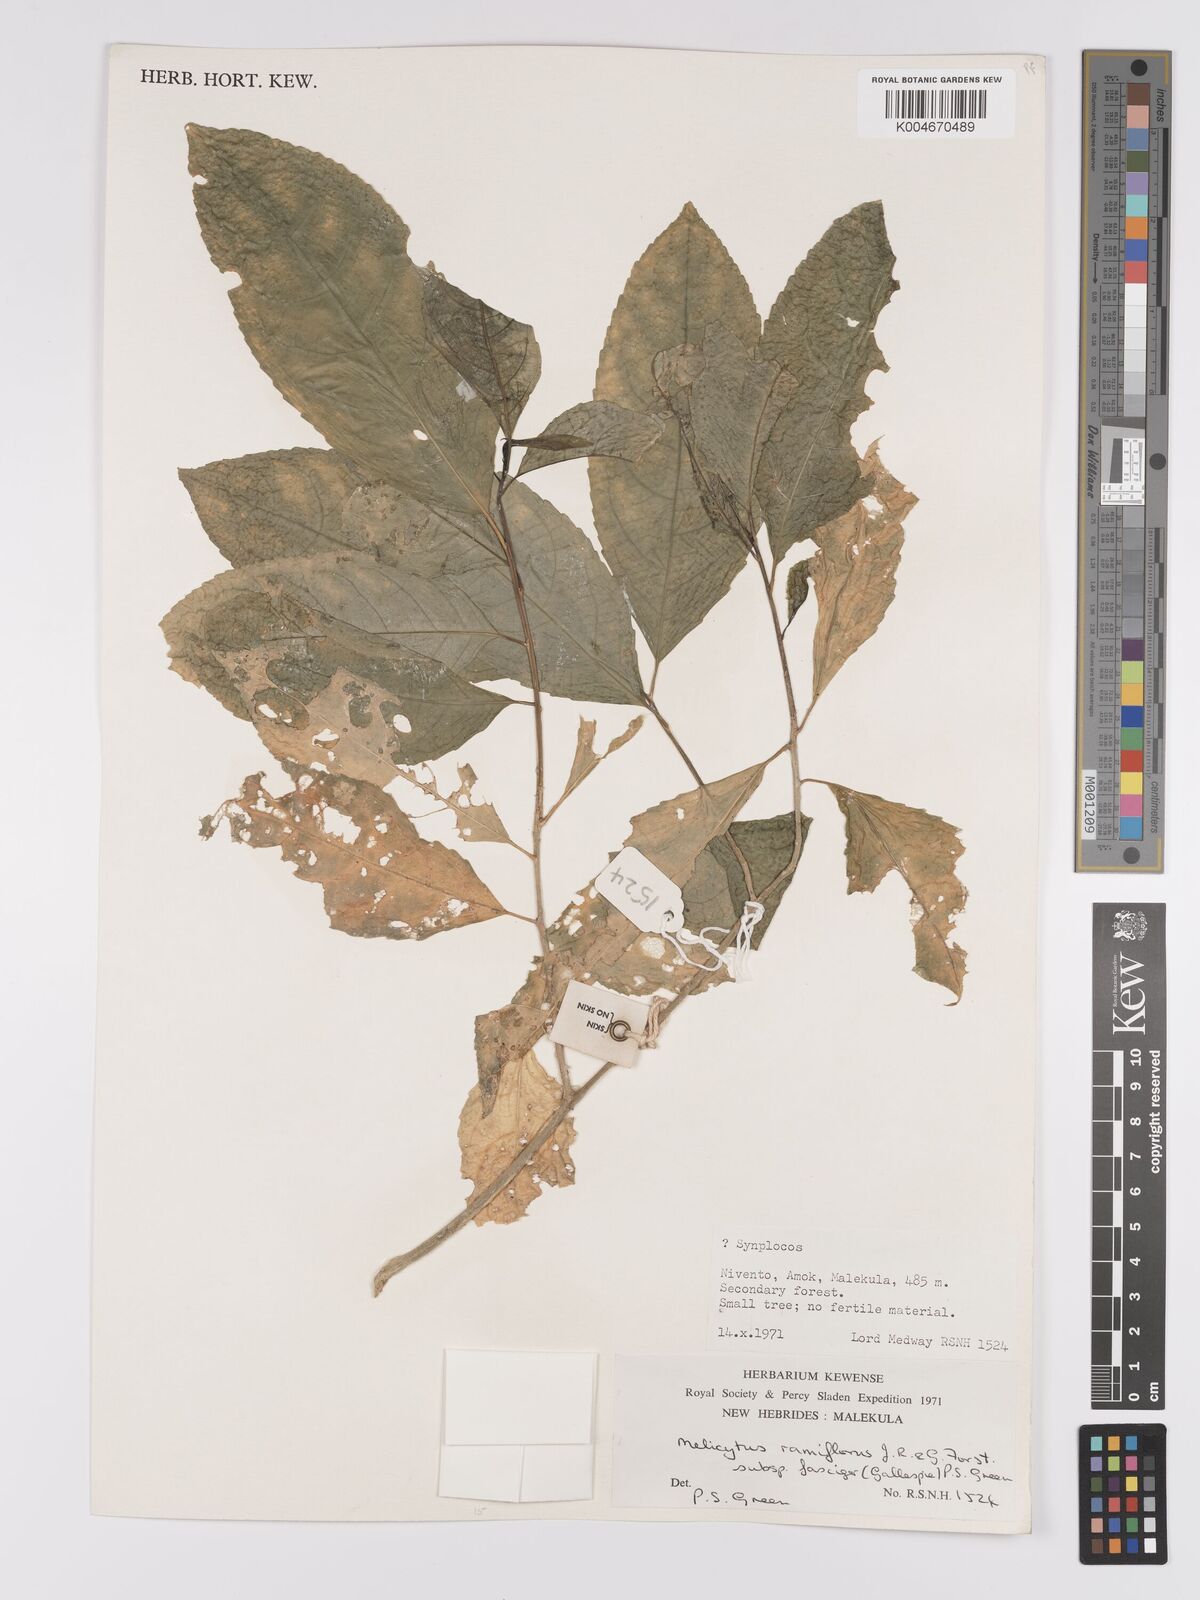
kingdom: Plantae
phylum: Tracheophyta
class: Magnoliopsida
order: Malpighiales
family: Violaceae
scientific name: Violaceae
